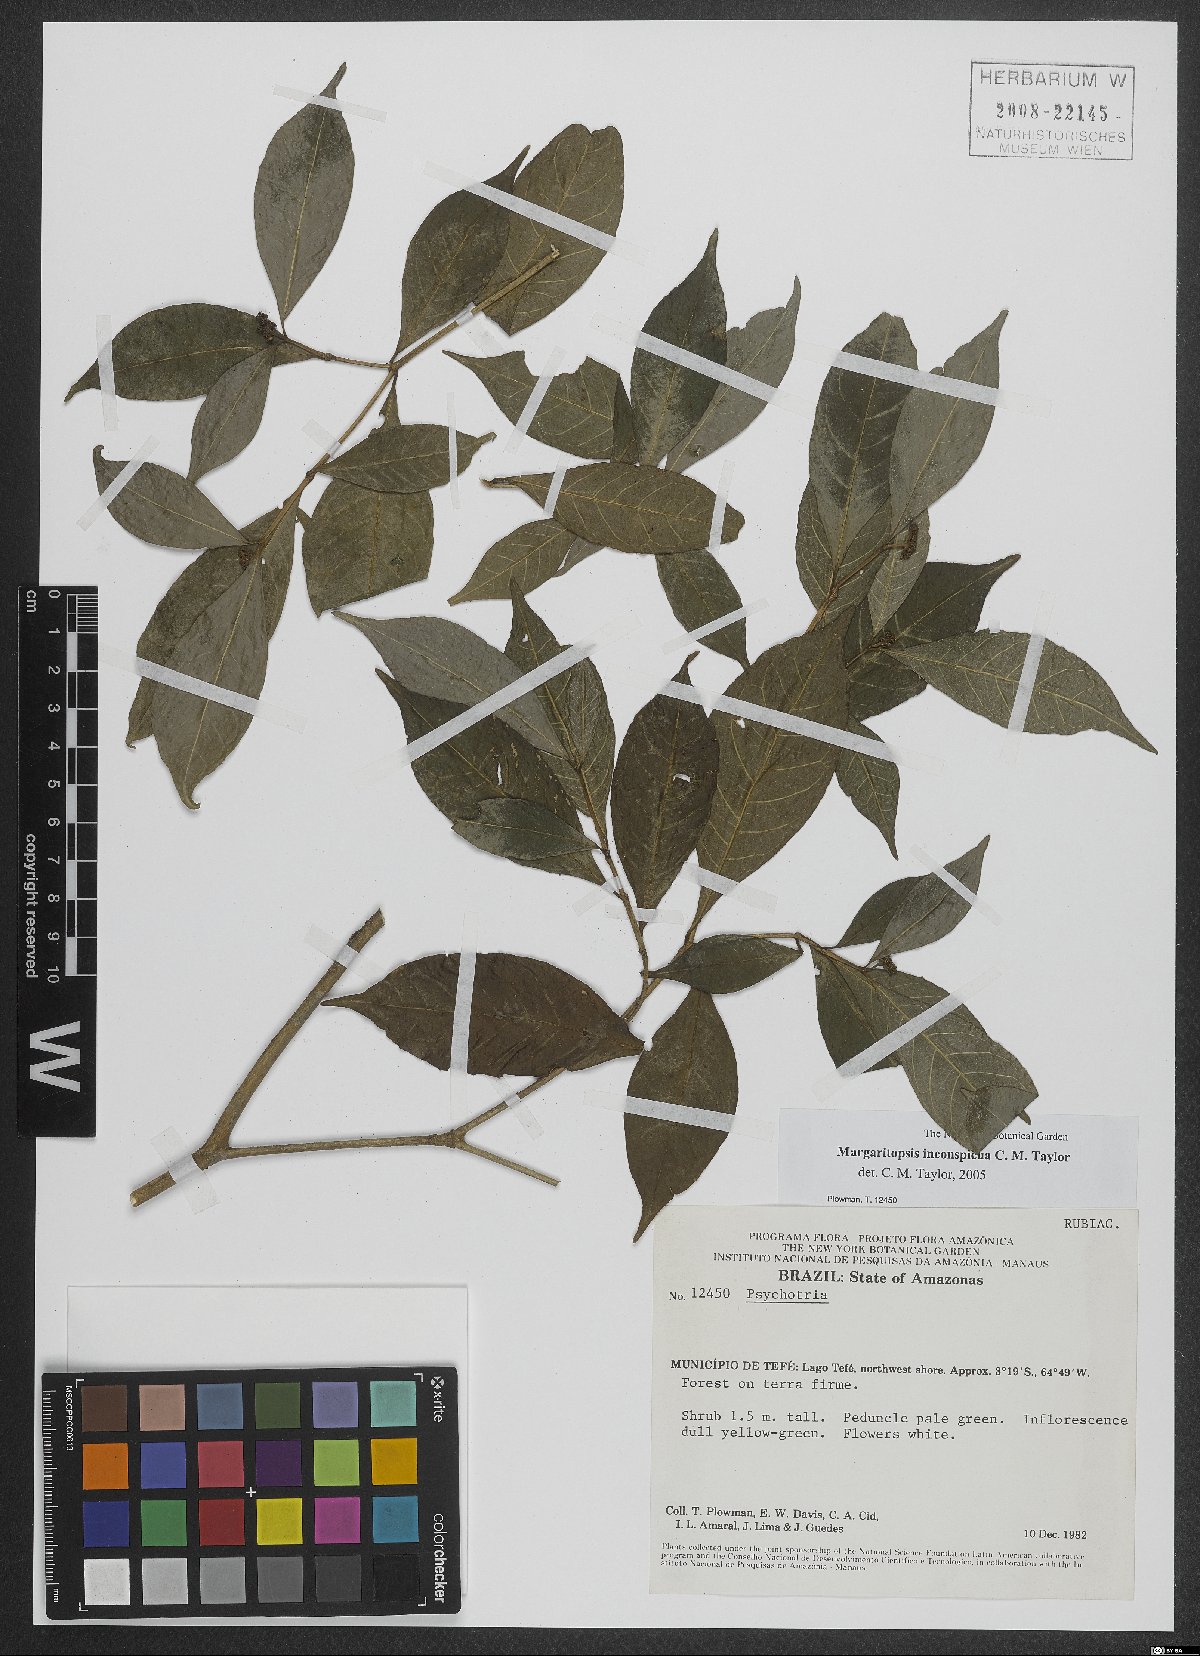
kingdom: Plantae
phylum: Tracheophyta
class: Magnoliopsida
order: Gentianales
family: Rubiaceae
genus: Eumachia
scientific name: Eumachia inconspicua
